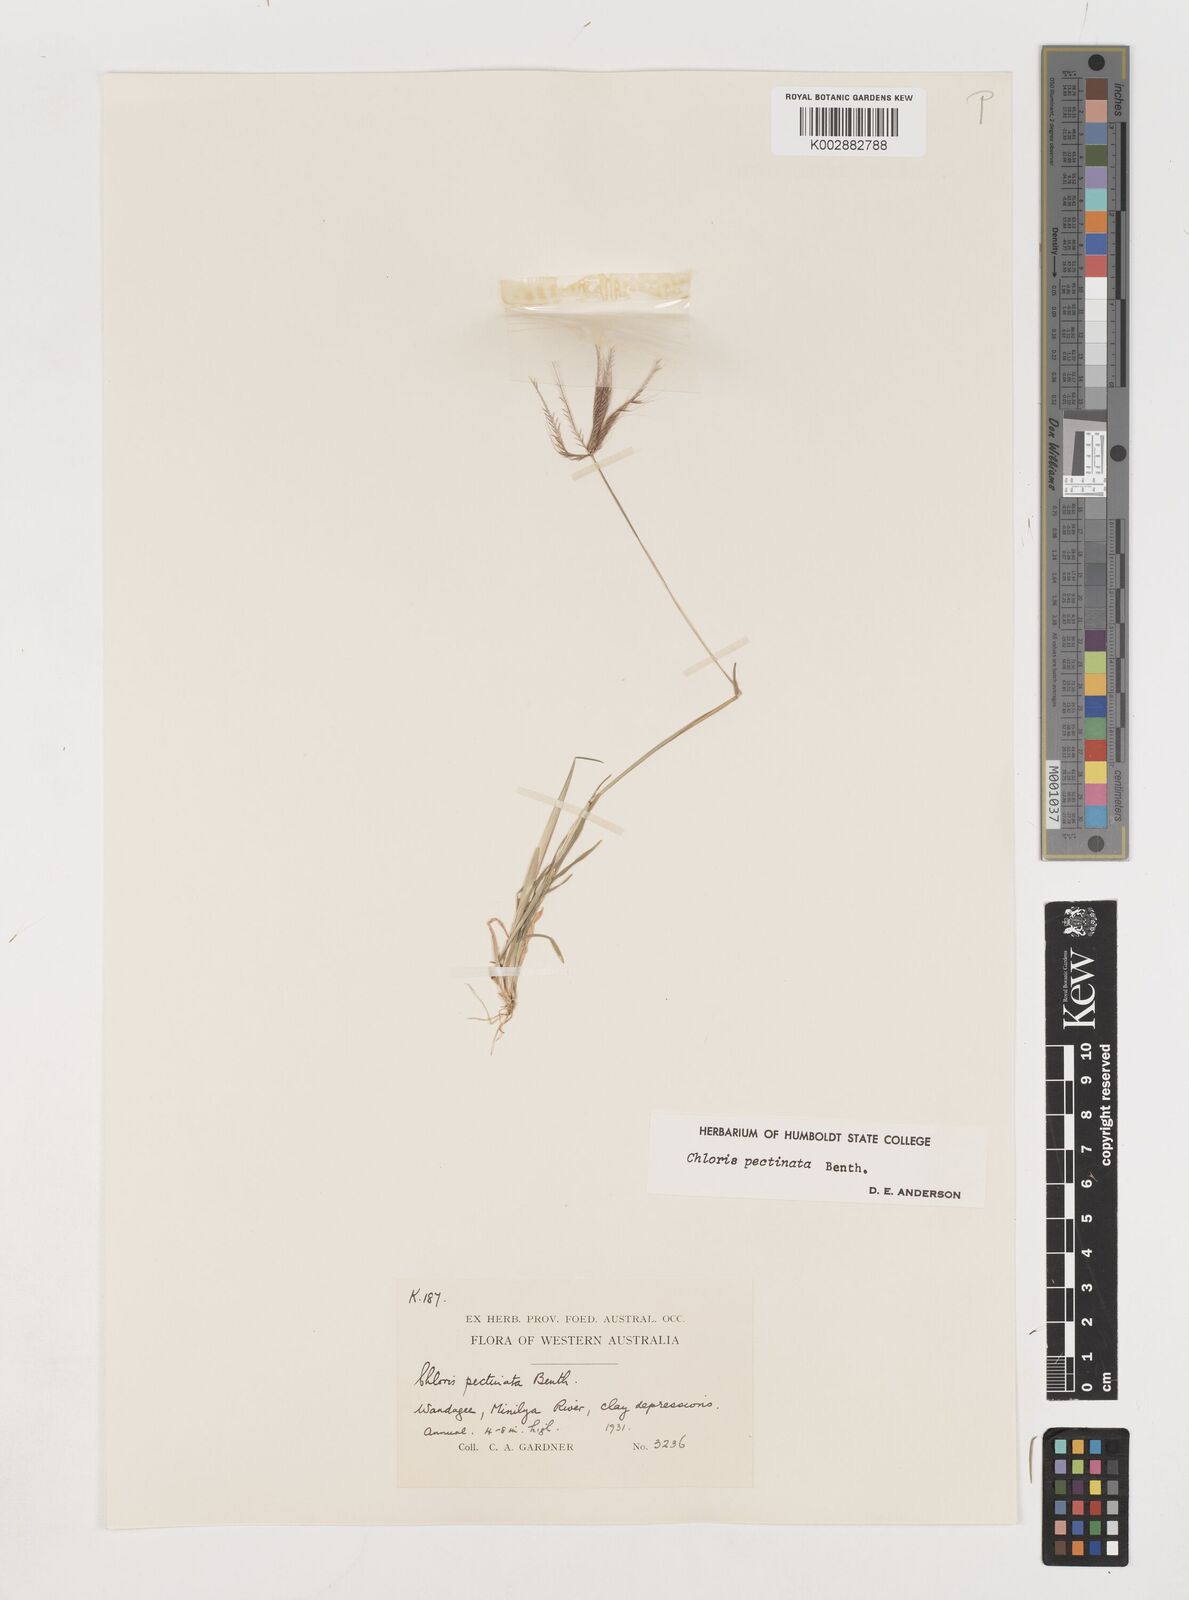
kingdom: Plantae
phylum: Tracheophyta
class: Liliopsida
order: Poales
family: Poaceae
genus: Chloris
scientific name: Chloris pectinata
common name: Comb windmill grass
